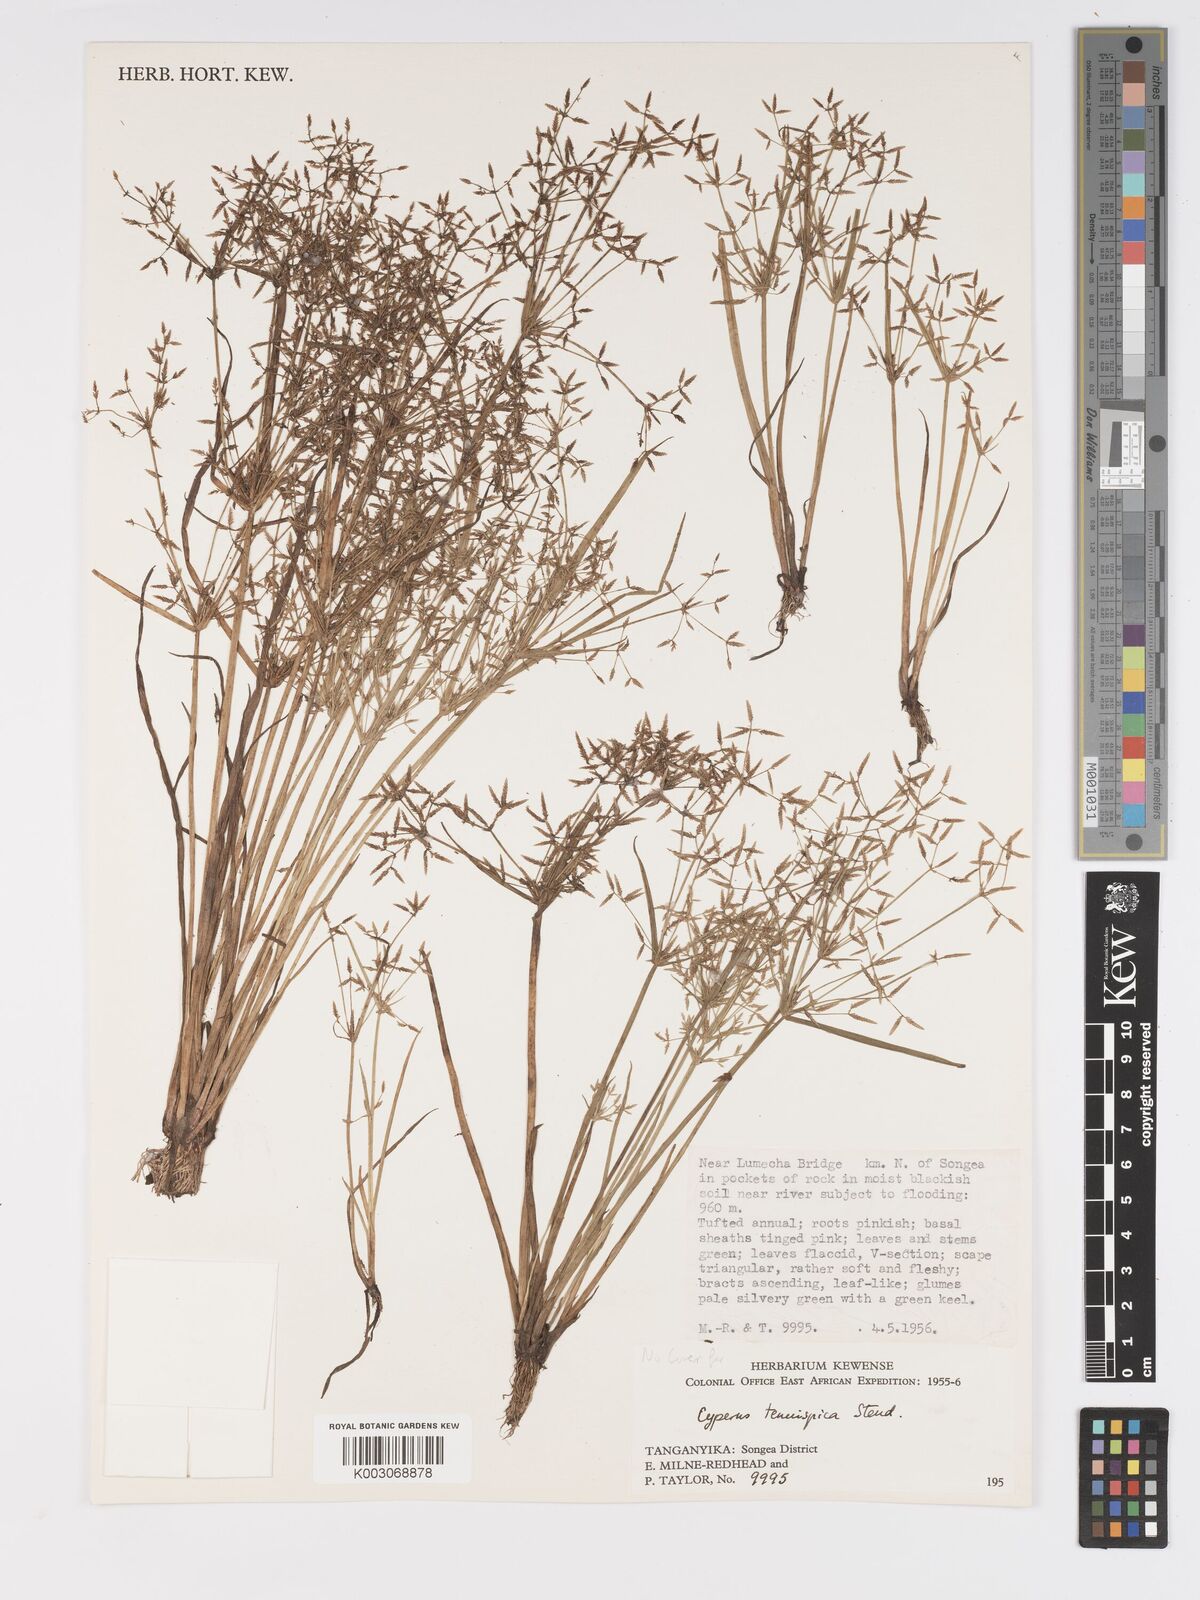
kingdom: Plantae
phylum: Tracheophyta
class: Liliopsida
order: Poales
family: Cyperaceae
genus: Cyperus
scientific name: Cyperus tenuispica
